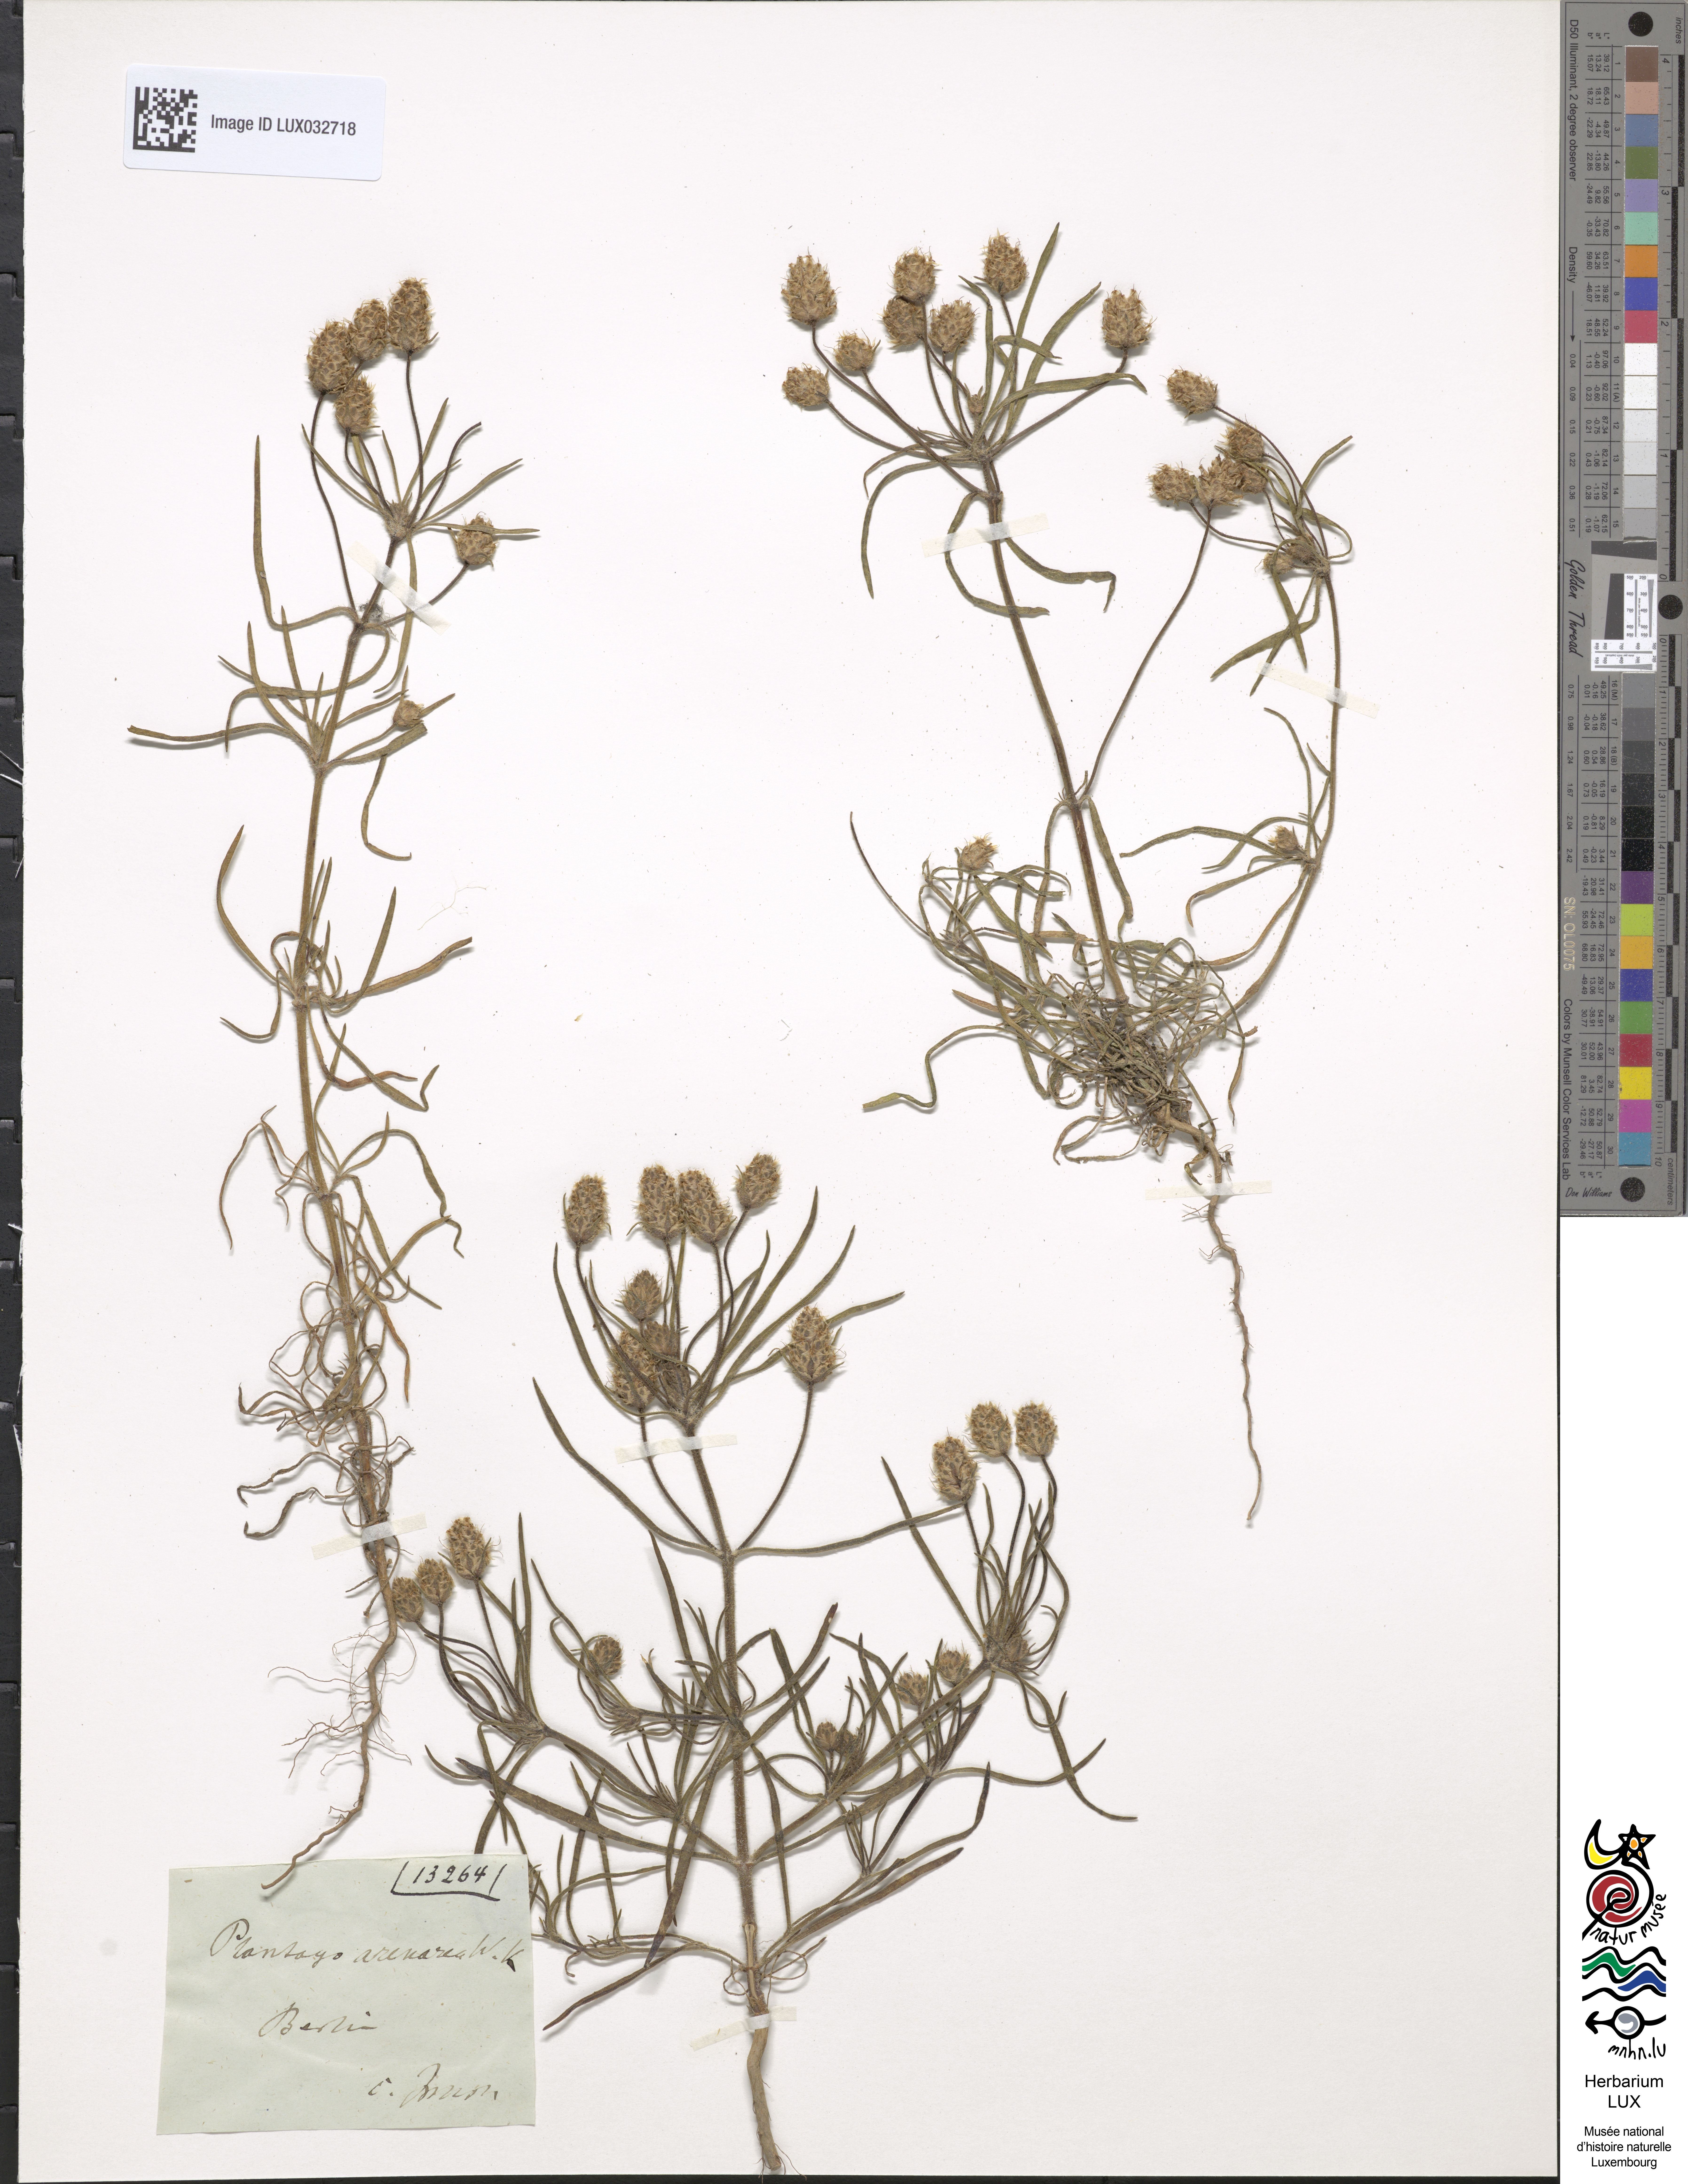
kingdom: Plantae
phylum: Tracheophyta
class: Magnoliopsida
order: Lamiales
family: Plantaginaceae
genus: Plantago
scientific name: Plantago arenaria
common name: Branched plantain
